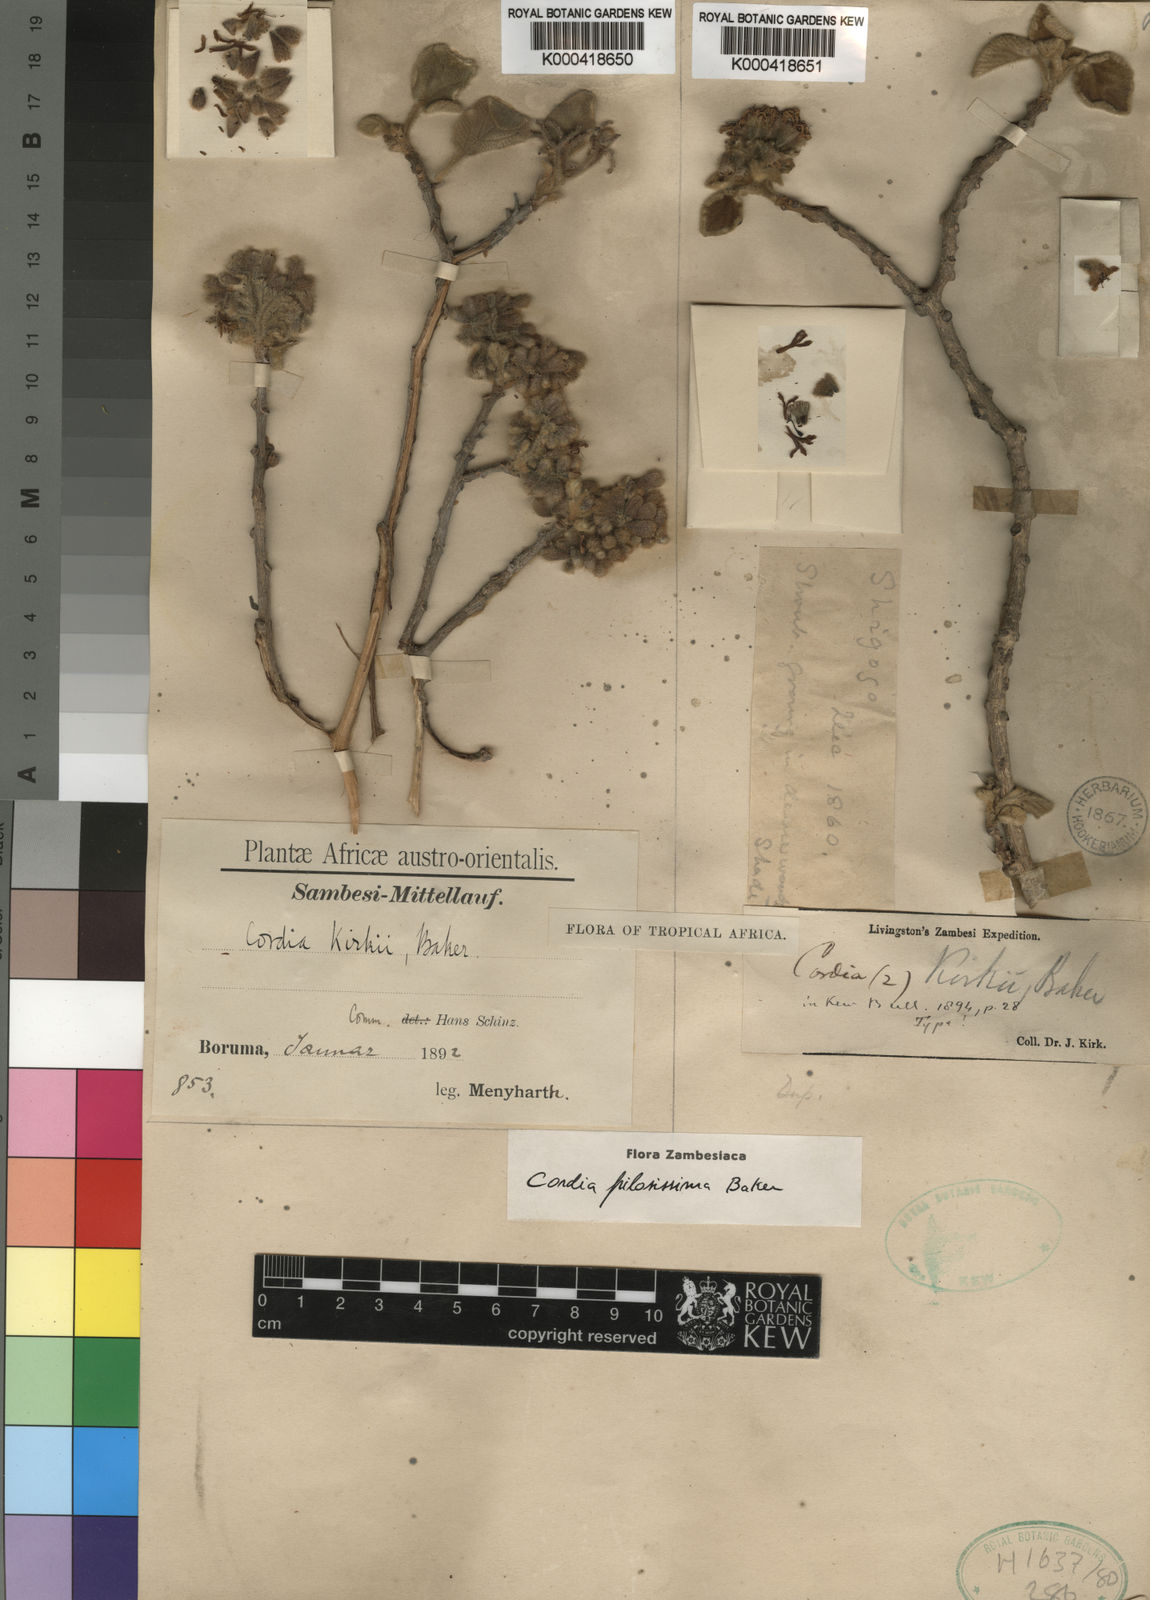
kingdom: Plantae
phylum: Tracheophyta
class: Magnoliopsida
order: Boraginales
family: Cordiaceae
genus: Cordia
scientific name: Cordia pilosissima
